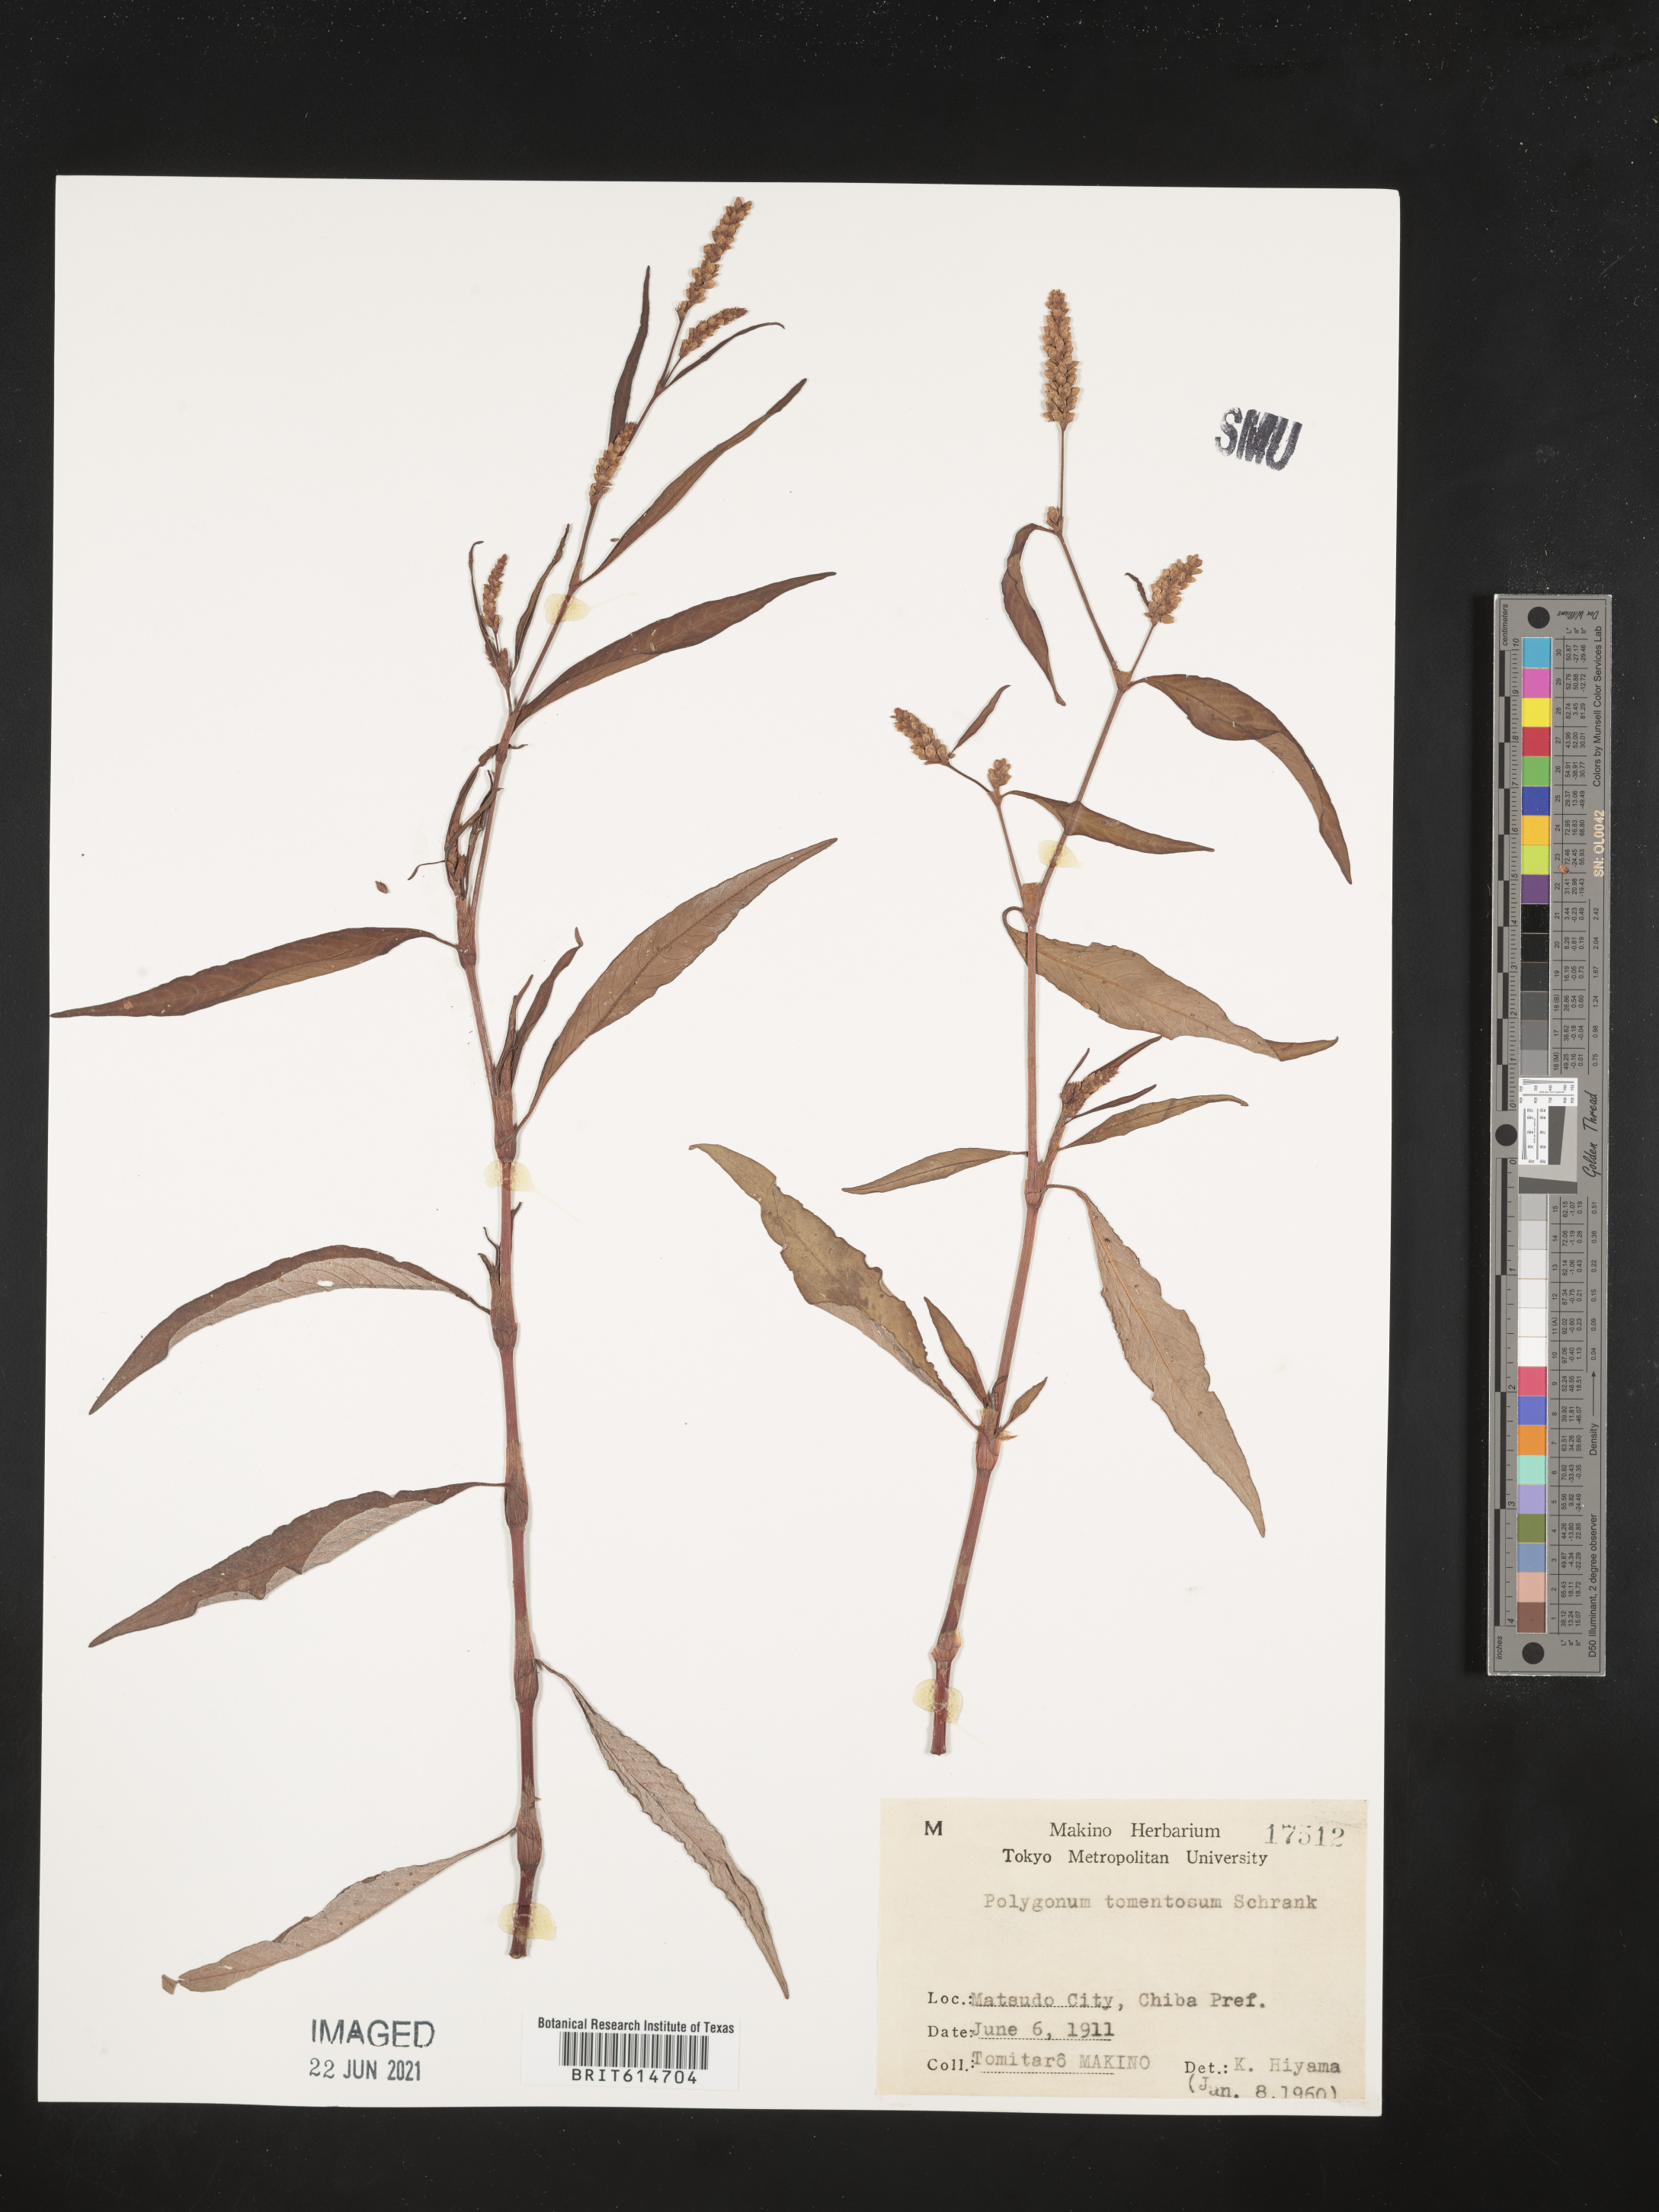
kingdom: Plantae
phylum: Tracheophyta
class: Magnoliopsida
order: Caryophyllales
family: Polygonaceae
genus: Persicaria
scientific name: Persicaria lapathifolia
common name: Curlytop knotweed
